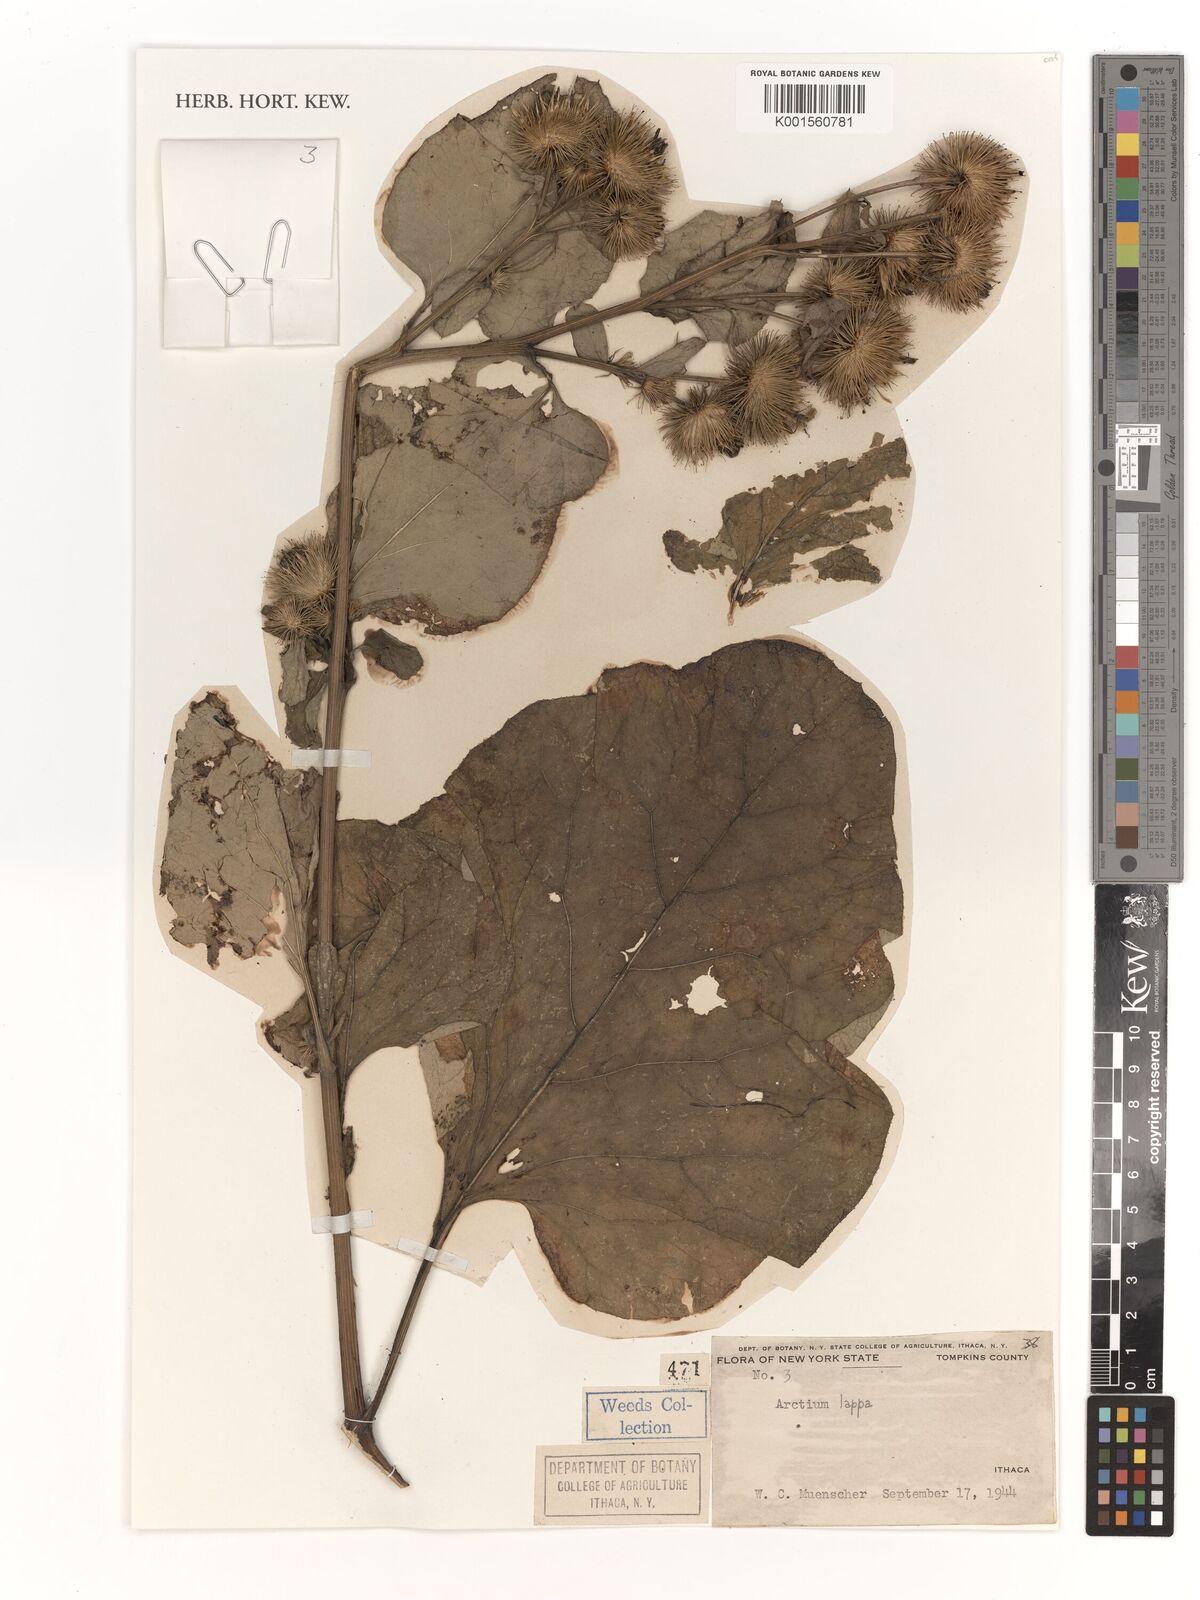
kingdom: Plantae
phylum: Tracheophyta
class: Magnoliopsida
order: Asterales
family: Asteraceae
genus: Arctium
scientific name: Arctium lappa
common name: Greater burdock
